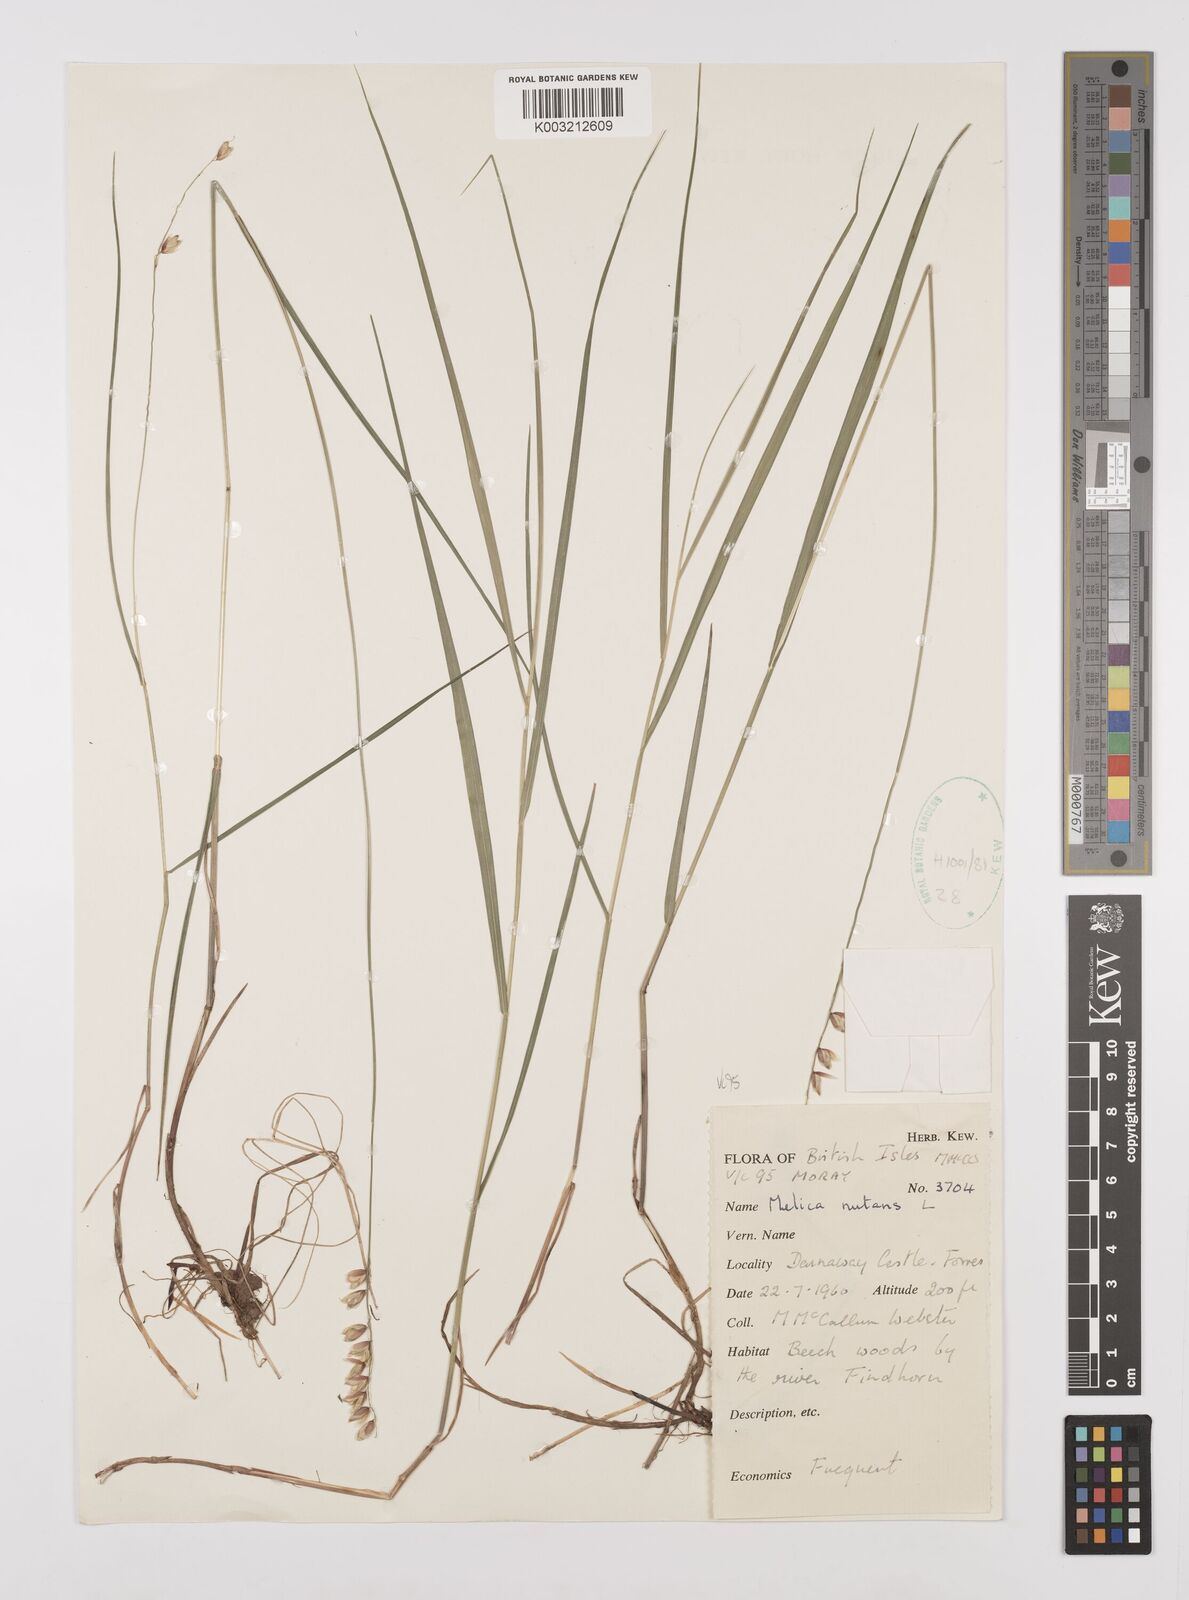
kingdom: Plantae
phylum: Tracheophyta
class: Liliopsida
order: Poales
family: Poaceae
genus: Melica
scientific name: Melica
